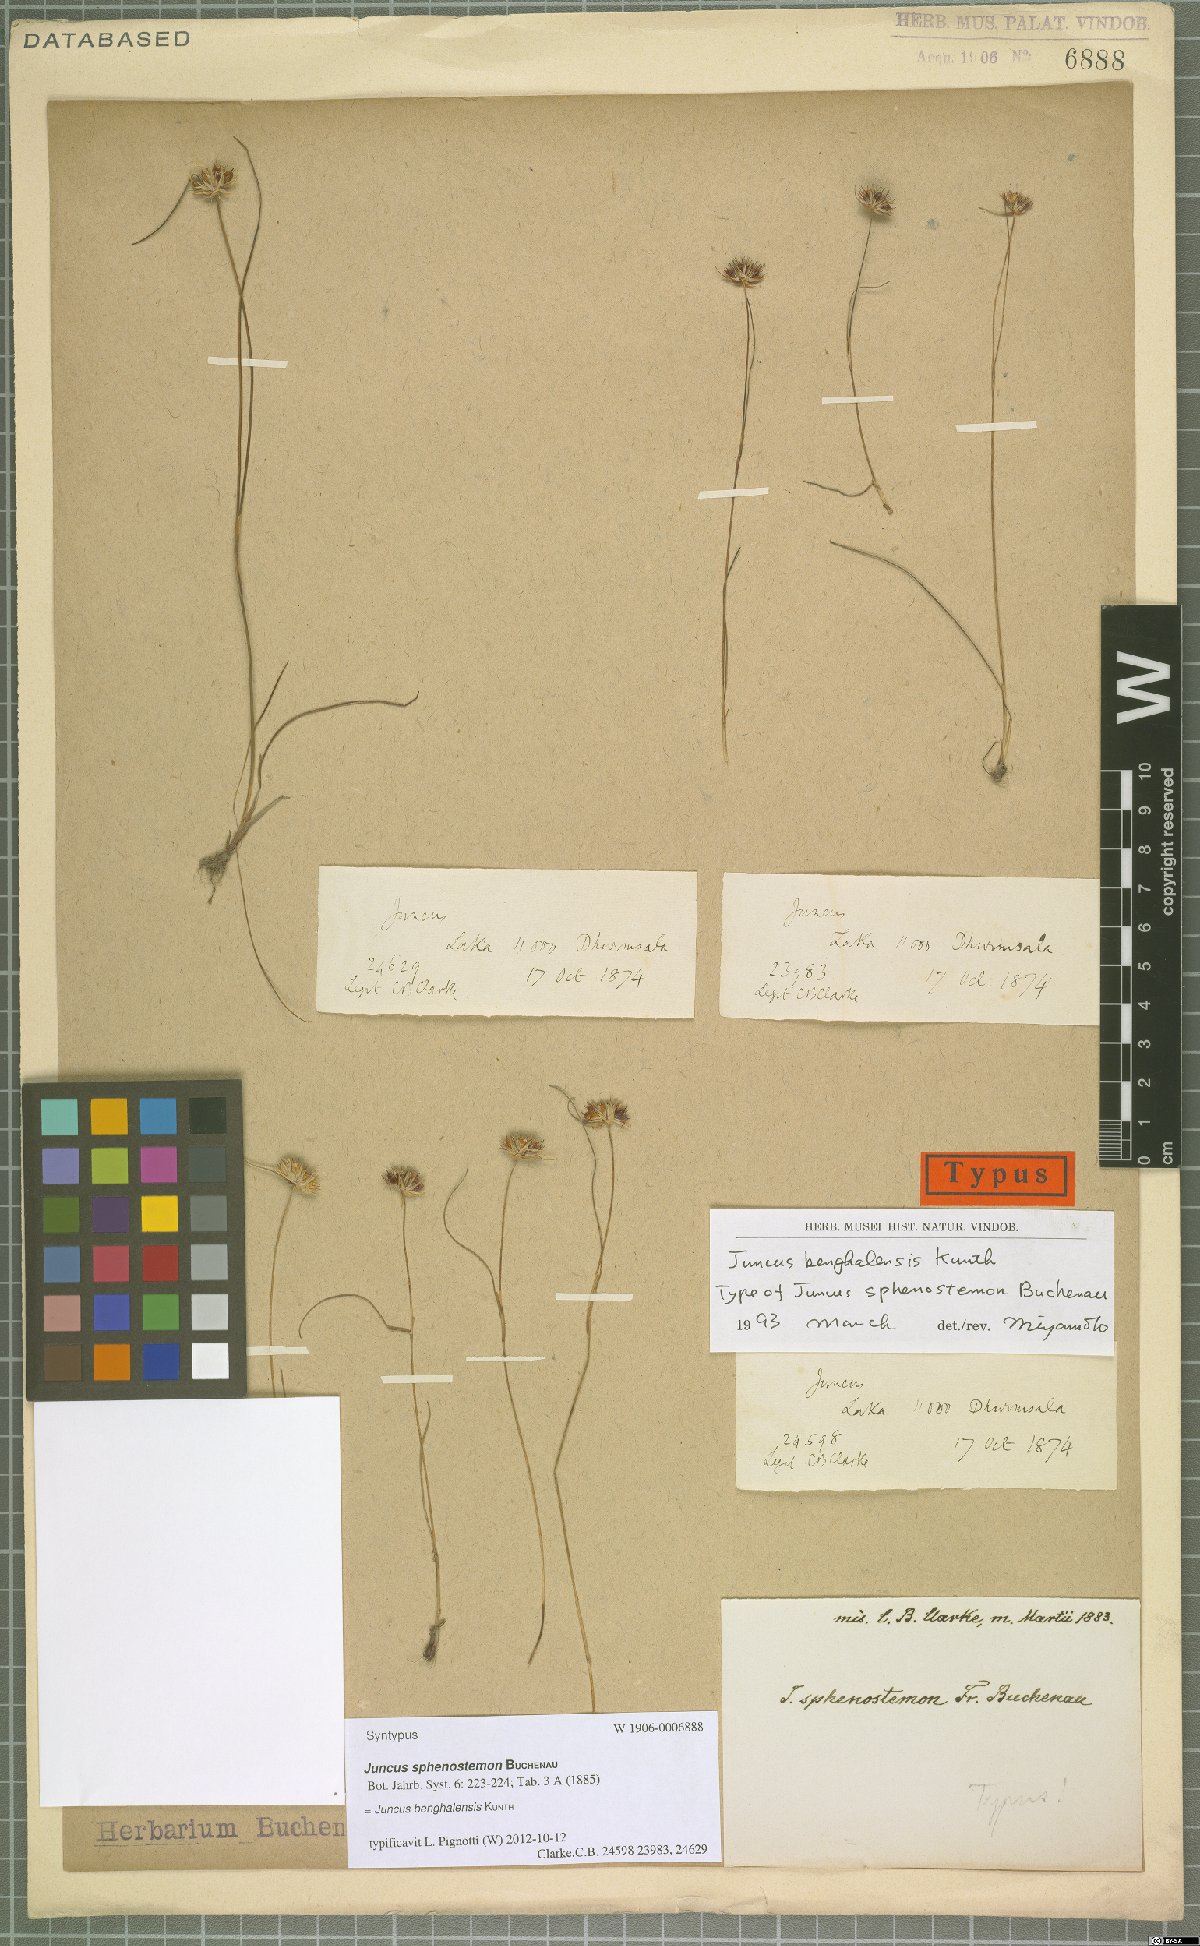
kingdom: Plantae
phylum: Tracheophyta
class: Liliopsida
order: Poales
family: Juncaceae
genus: Juncus
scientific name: Juncus benghalensis
